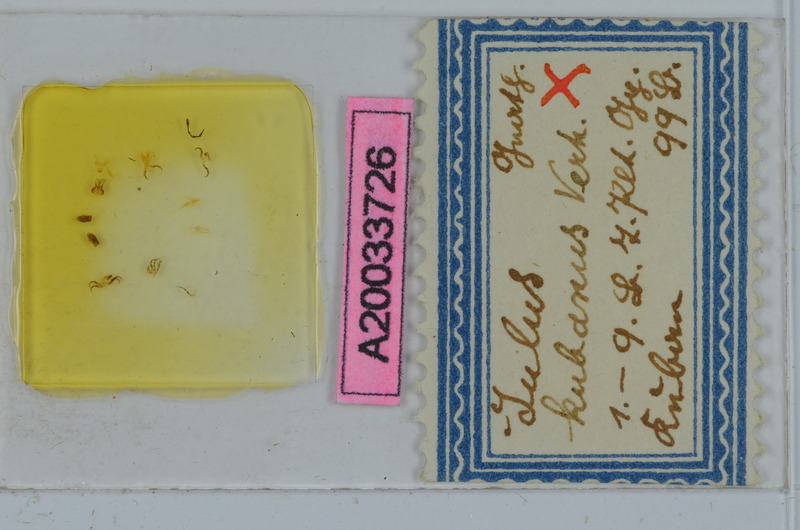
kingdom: Animalia
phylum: Arthropoda
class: Diplopoda
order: Julida
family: Julidae
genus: Porrhoiulus
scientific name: Porrhoiulus kubanus
